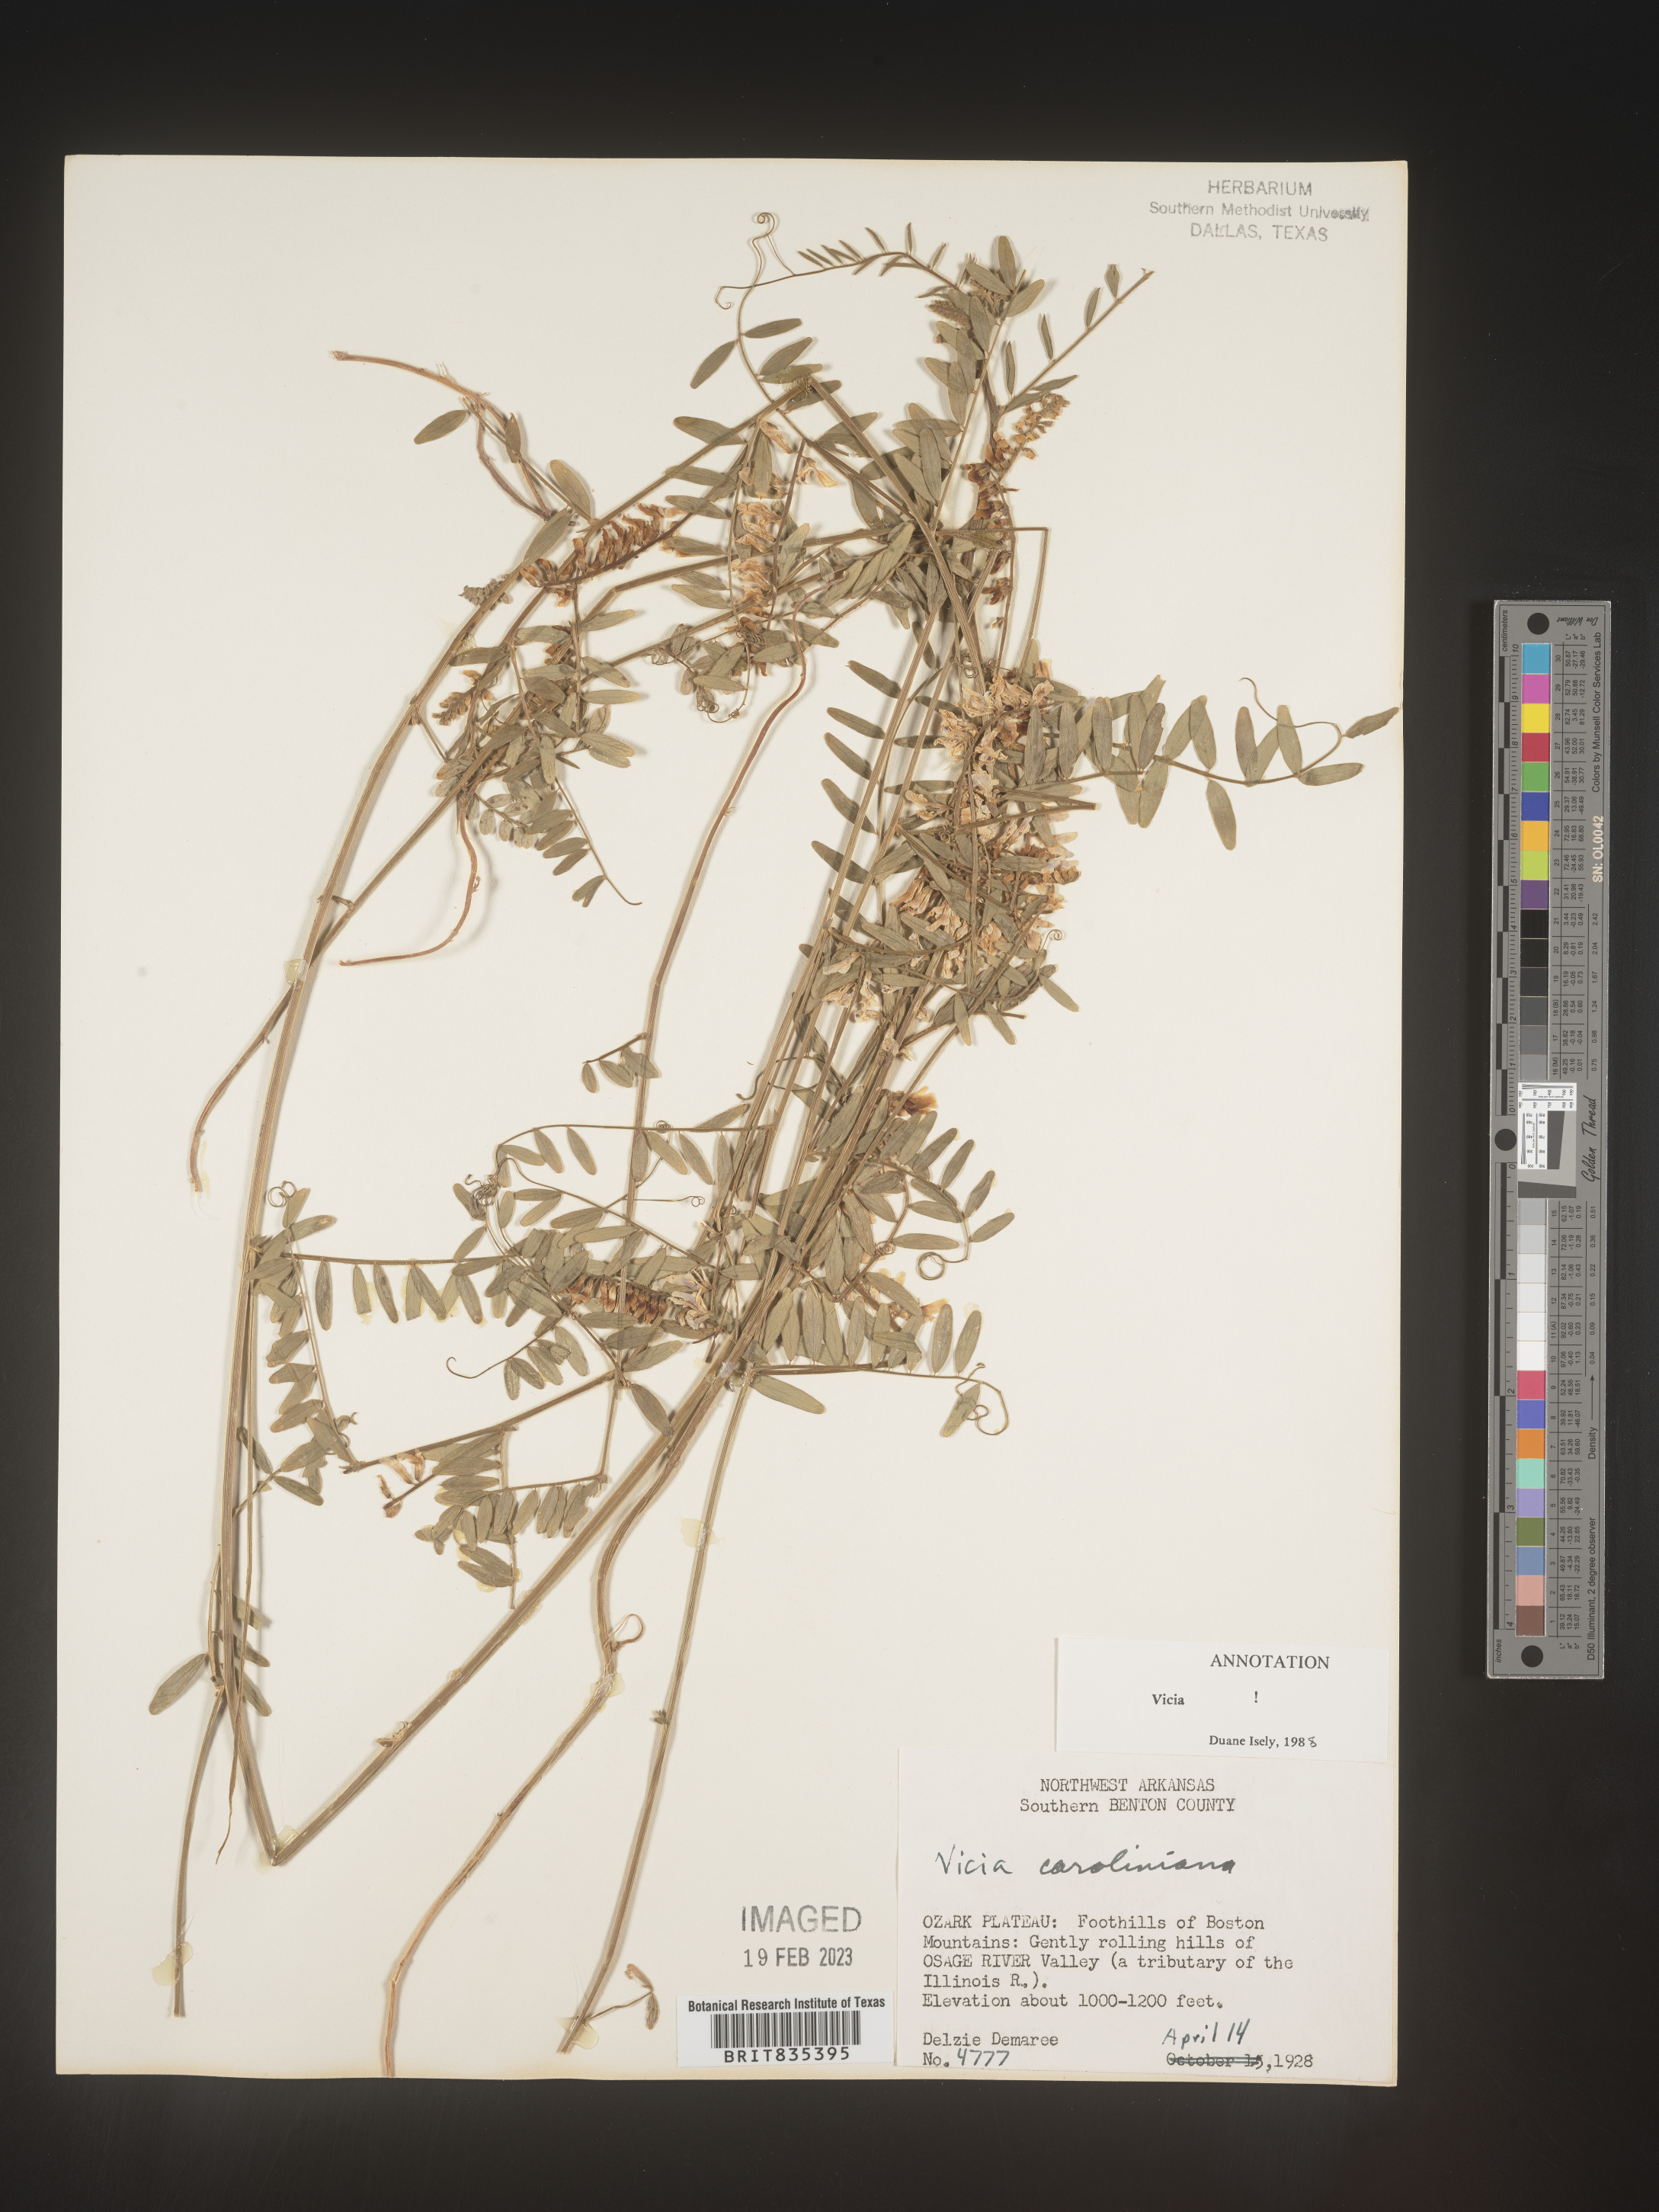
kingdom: Plantae
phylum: Tracheophyta
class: Magnoliopsida
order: Fabales
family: Fabaceae
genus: Vicia
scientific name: Vicia caroliniana
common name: Carolina vetch
